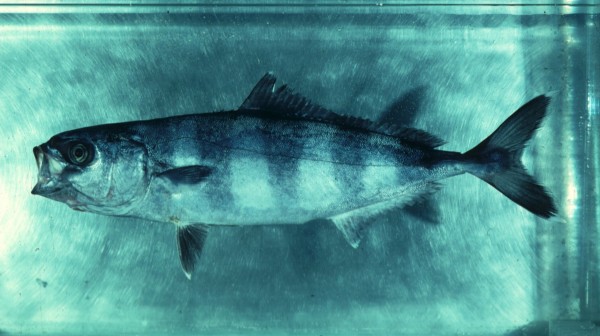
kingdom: Animalia
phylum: Chordata
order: Perciformes
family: Carangidae
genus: Naucrates
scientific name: Naucrates ductor
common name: Pilotfish
